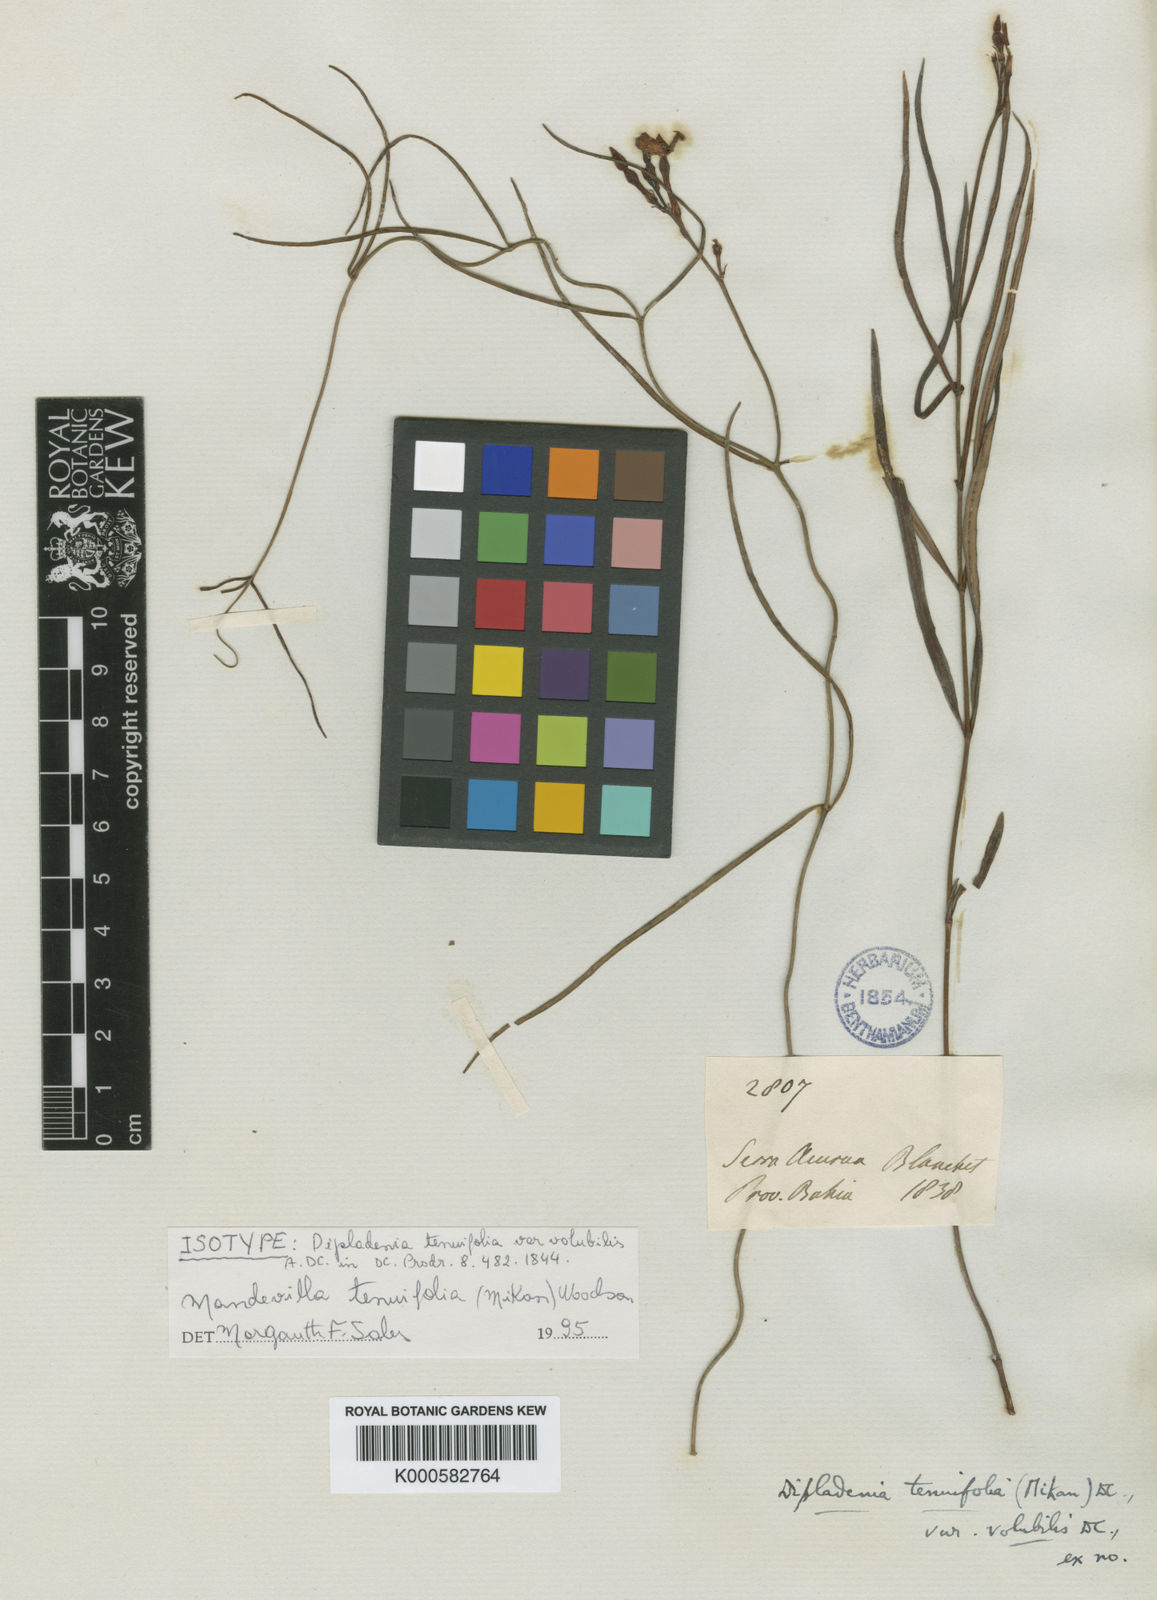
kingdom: Plantae
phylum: Tracheophyta
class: Magnoliopsida
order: Gentianales
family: Apocynaceae
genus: Mandevilla
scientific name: Mandevilla tenuifolia
